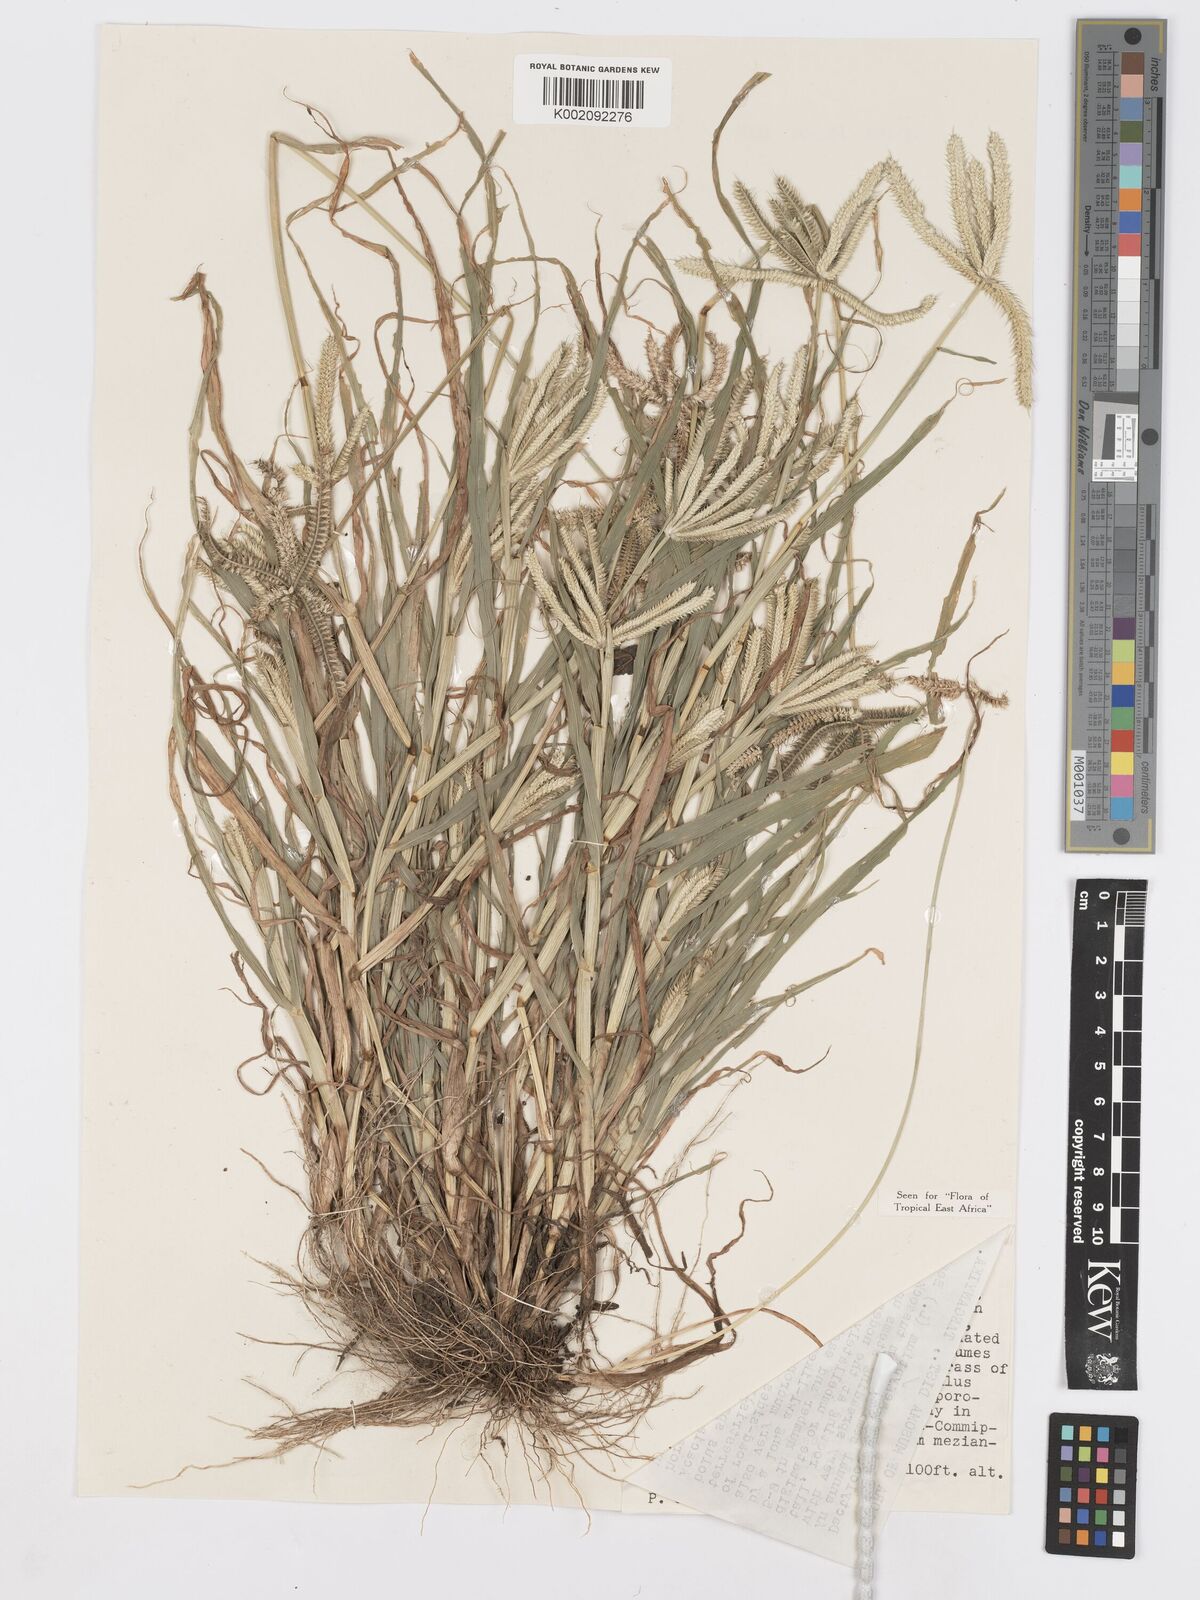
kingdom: Plantae
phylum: Tracheophyta
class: Liliopsida
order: Poales
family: Poaceae
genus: Dactyloctenium
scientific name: Dactyloctenium aegyptium
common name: Egyptian grass
